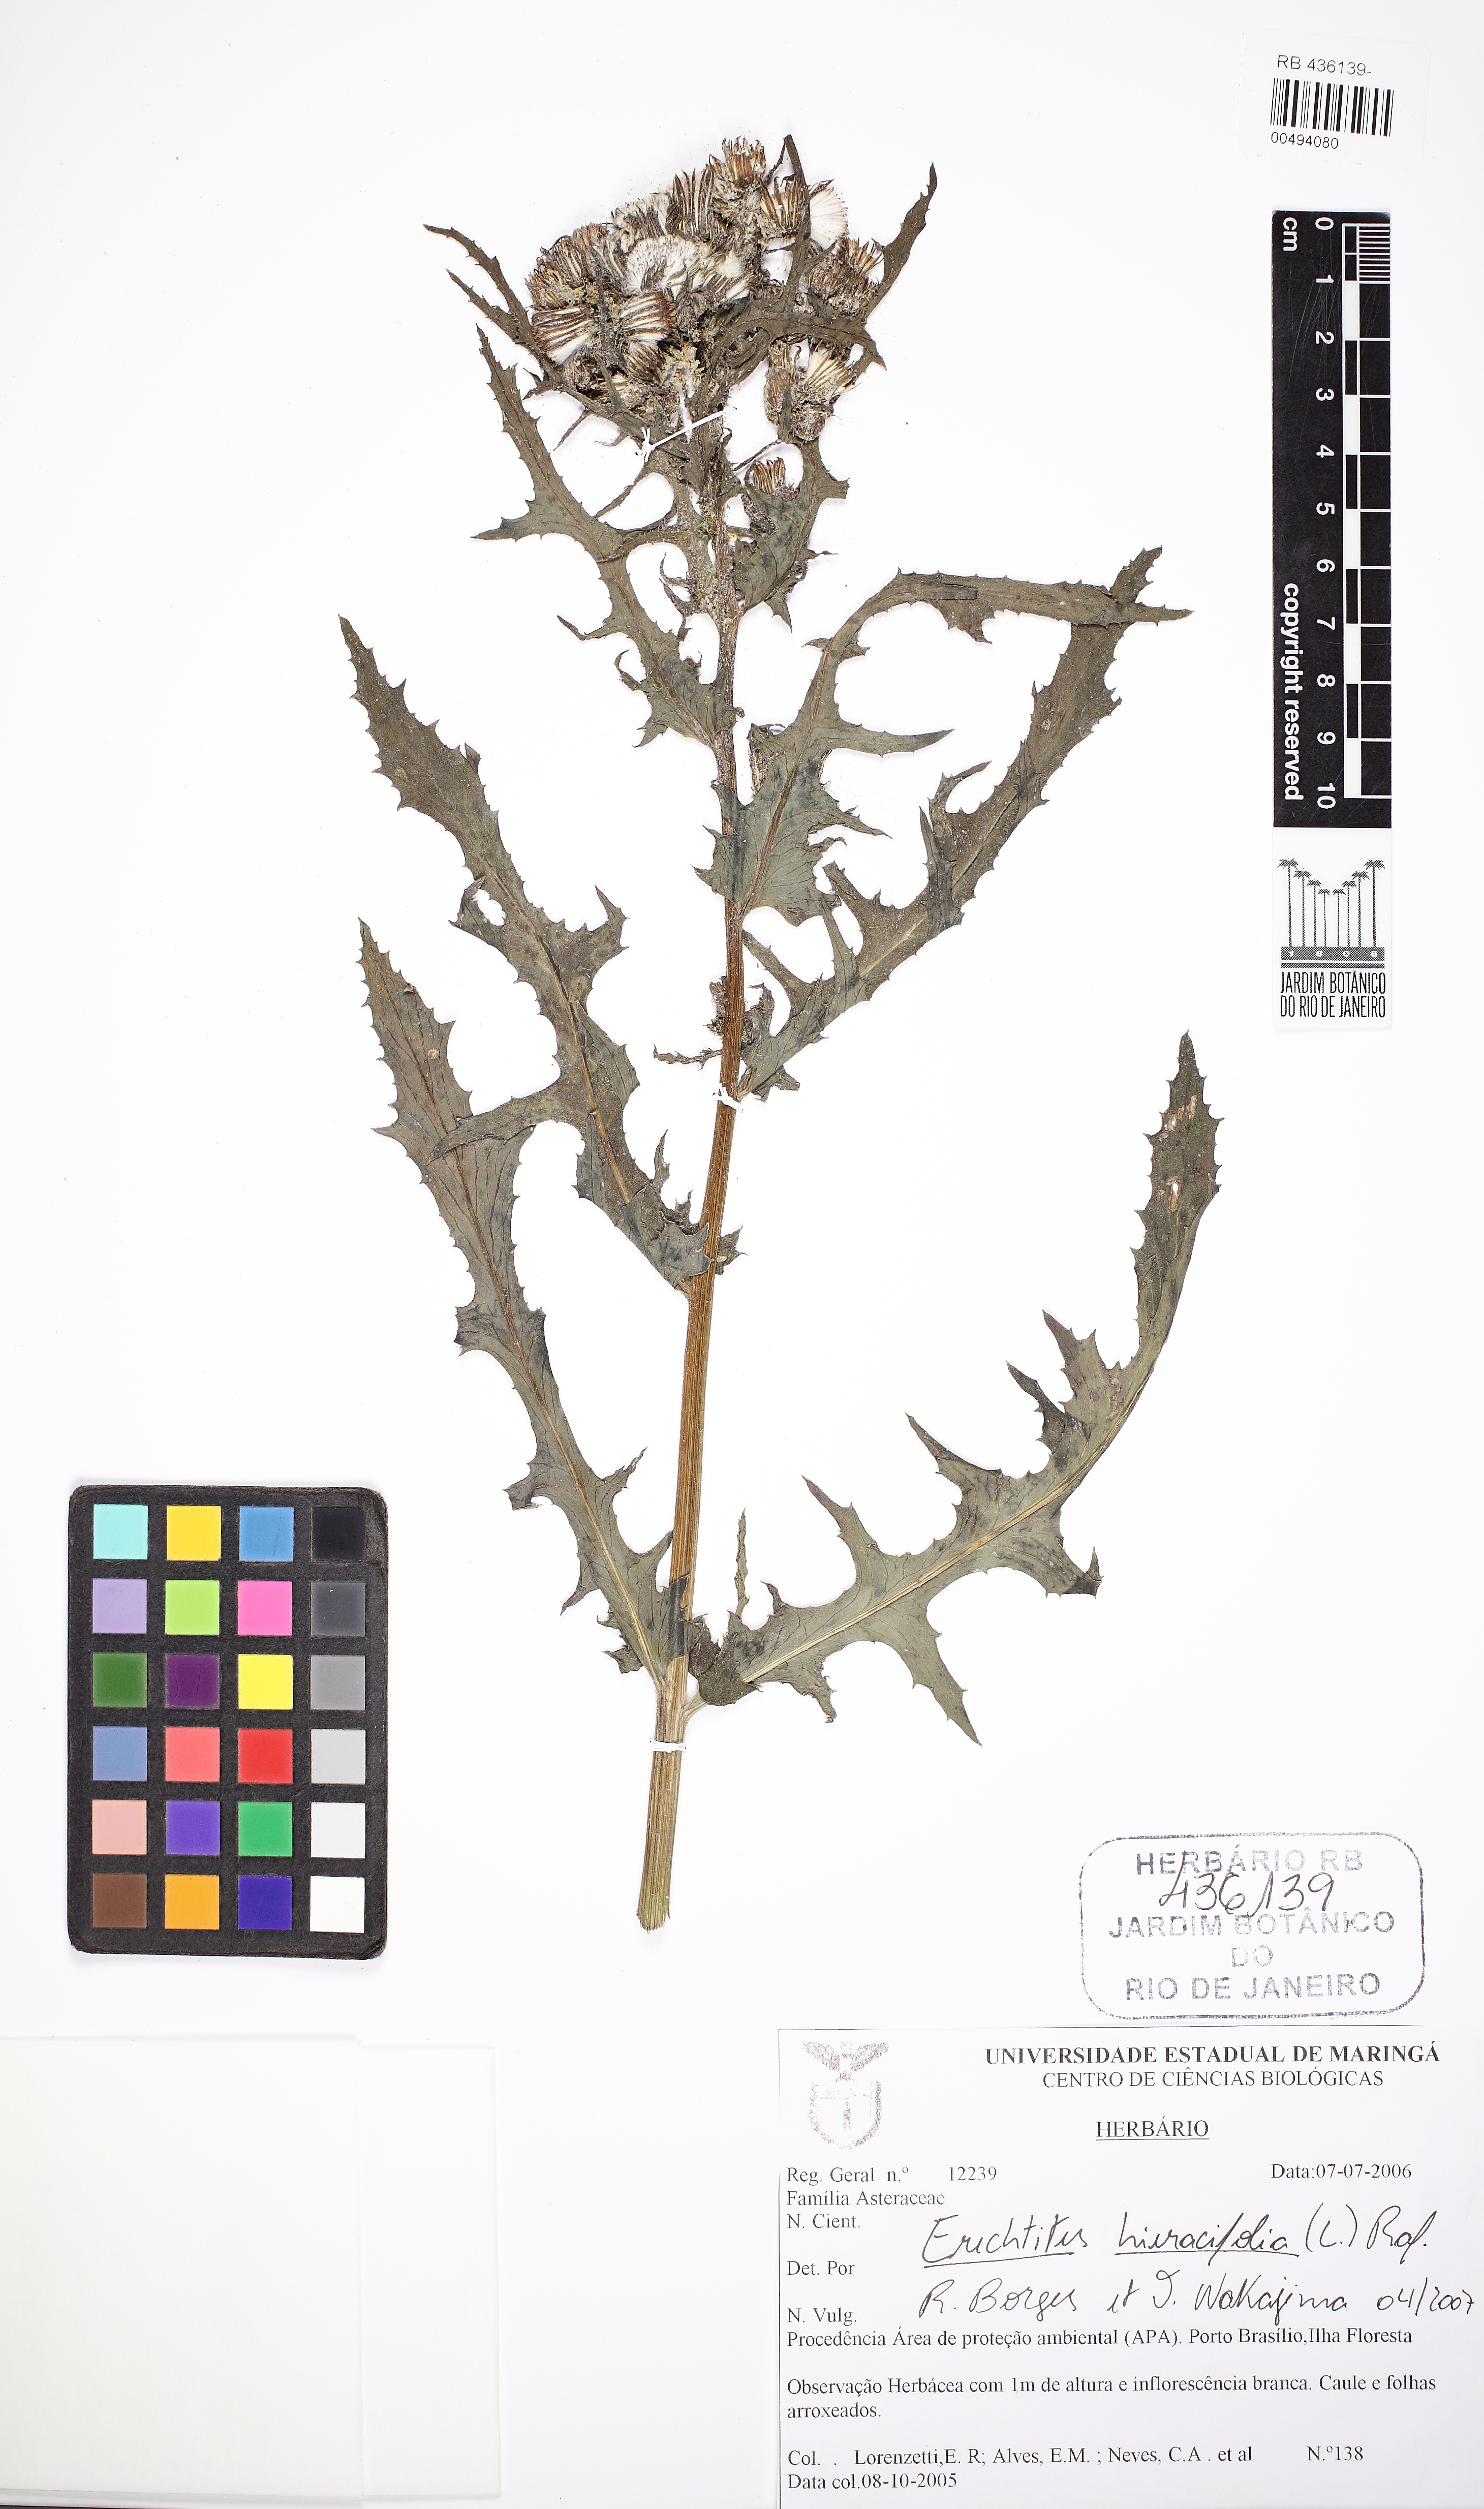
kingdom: Plantae
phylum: Tracheophyta
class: Magnoliopsida
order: Asterales
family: Asteraceae
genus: Erechtites
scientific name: Erechtites hieraciifolius
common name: American burnweed
